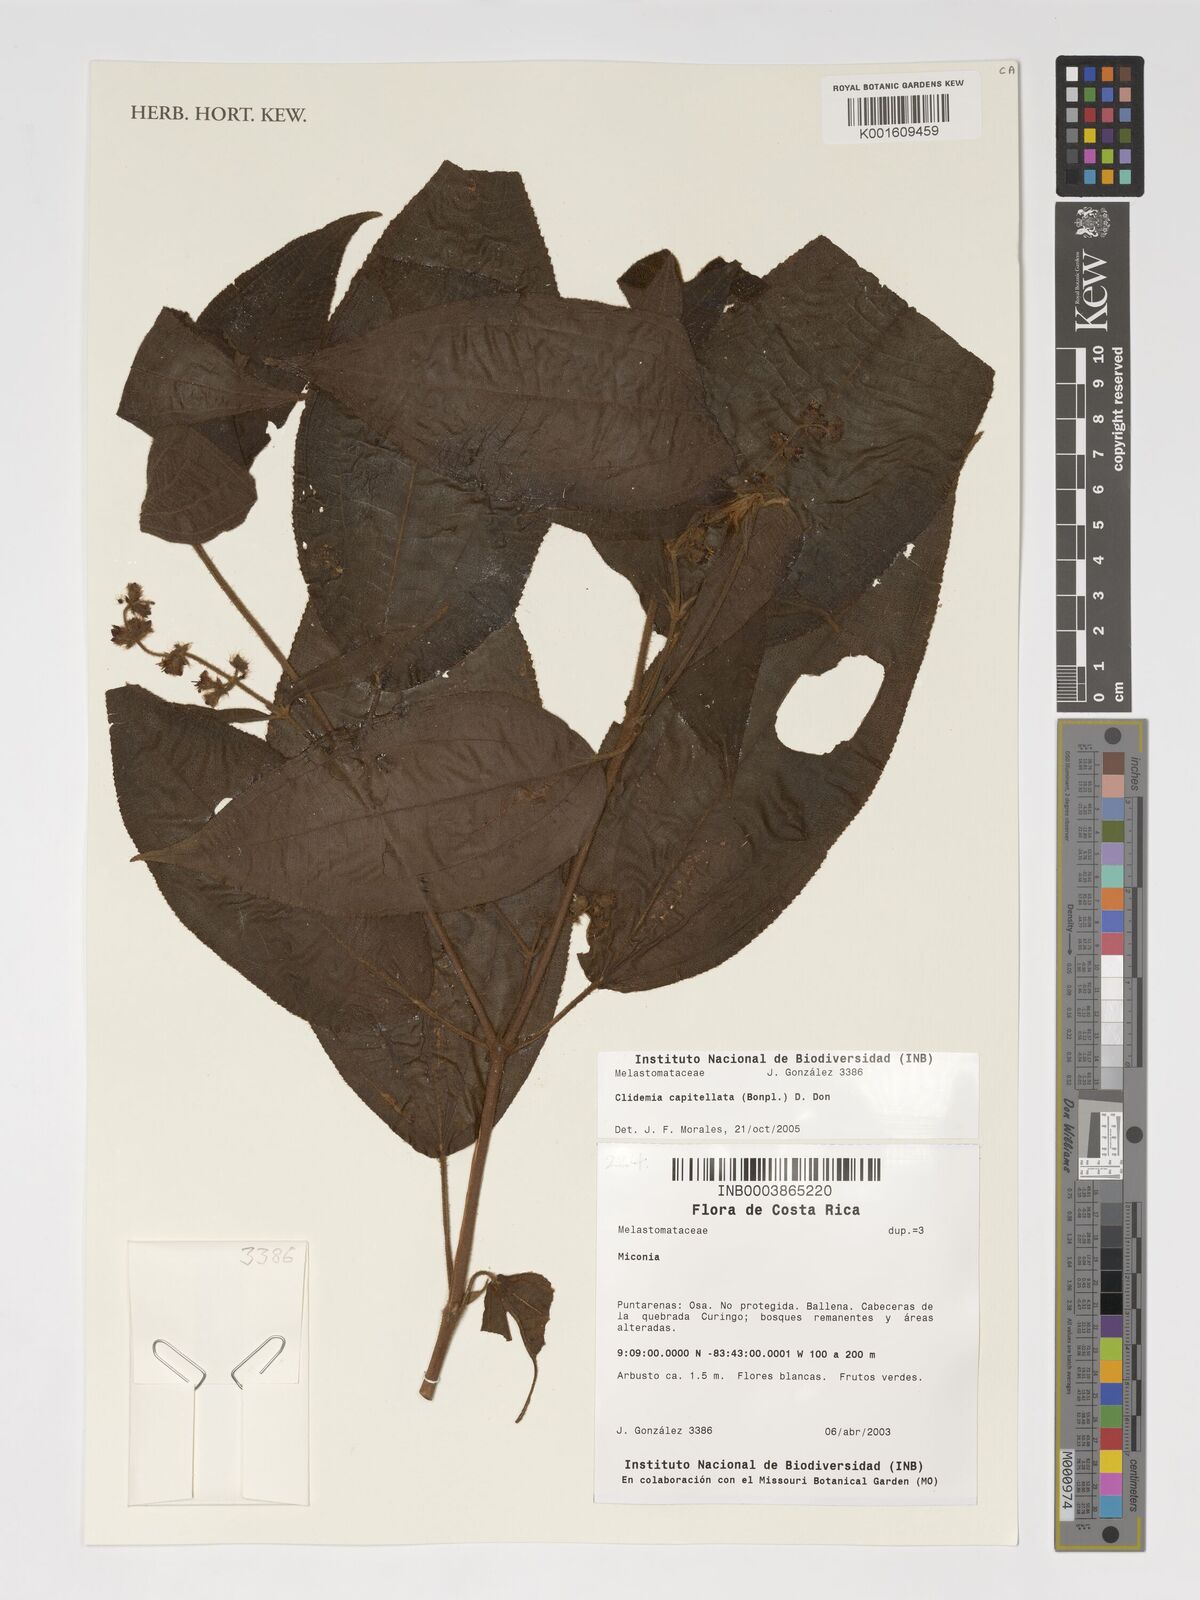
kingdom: Plantae
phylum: Tracheophyta
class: Magnoliopsida
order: Myrtales
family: Melastomataceae
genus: Miconia
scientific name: Miconia dependens
